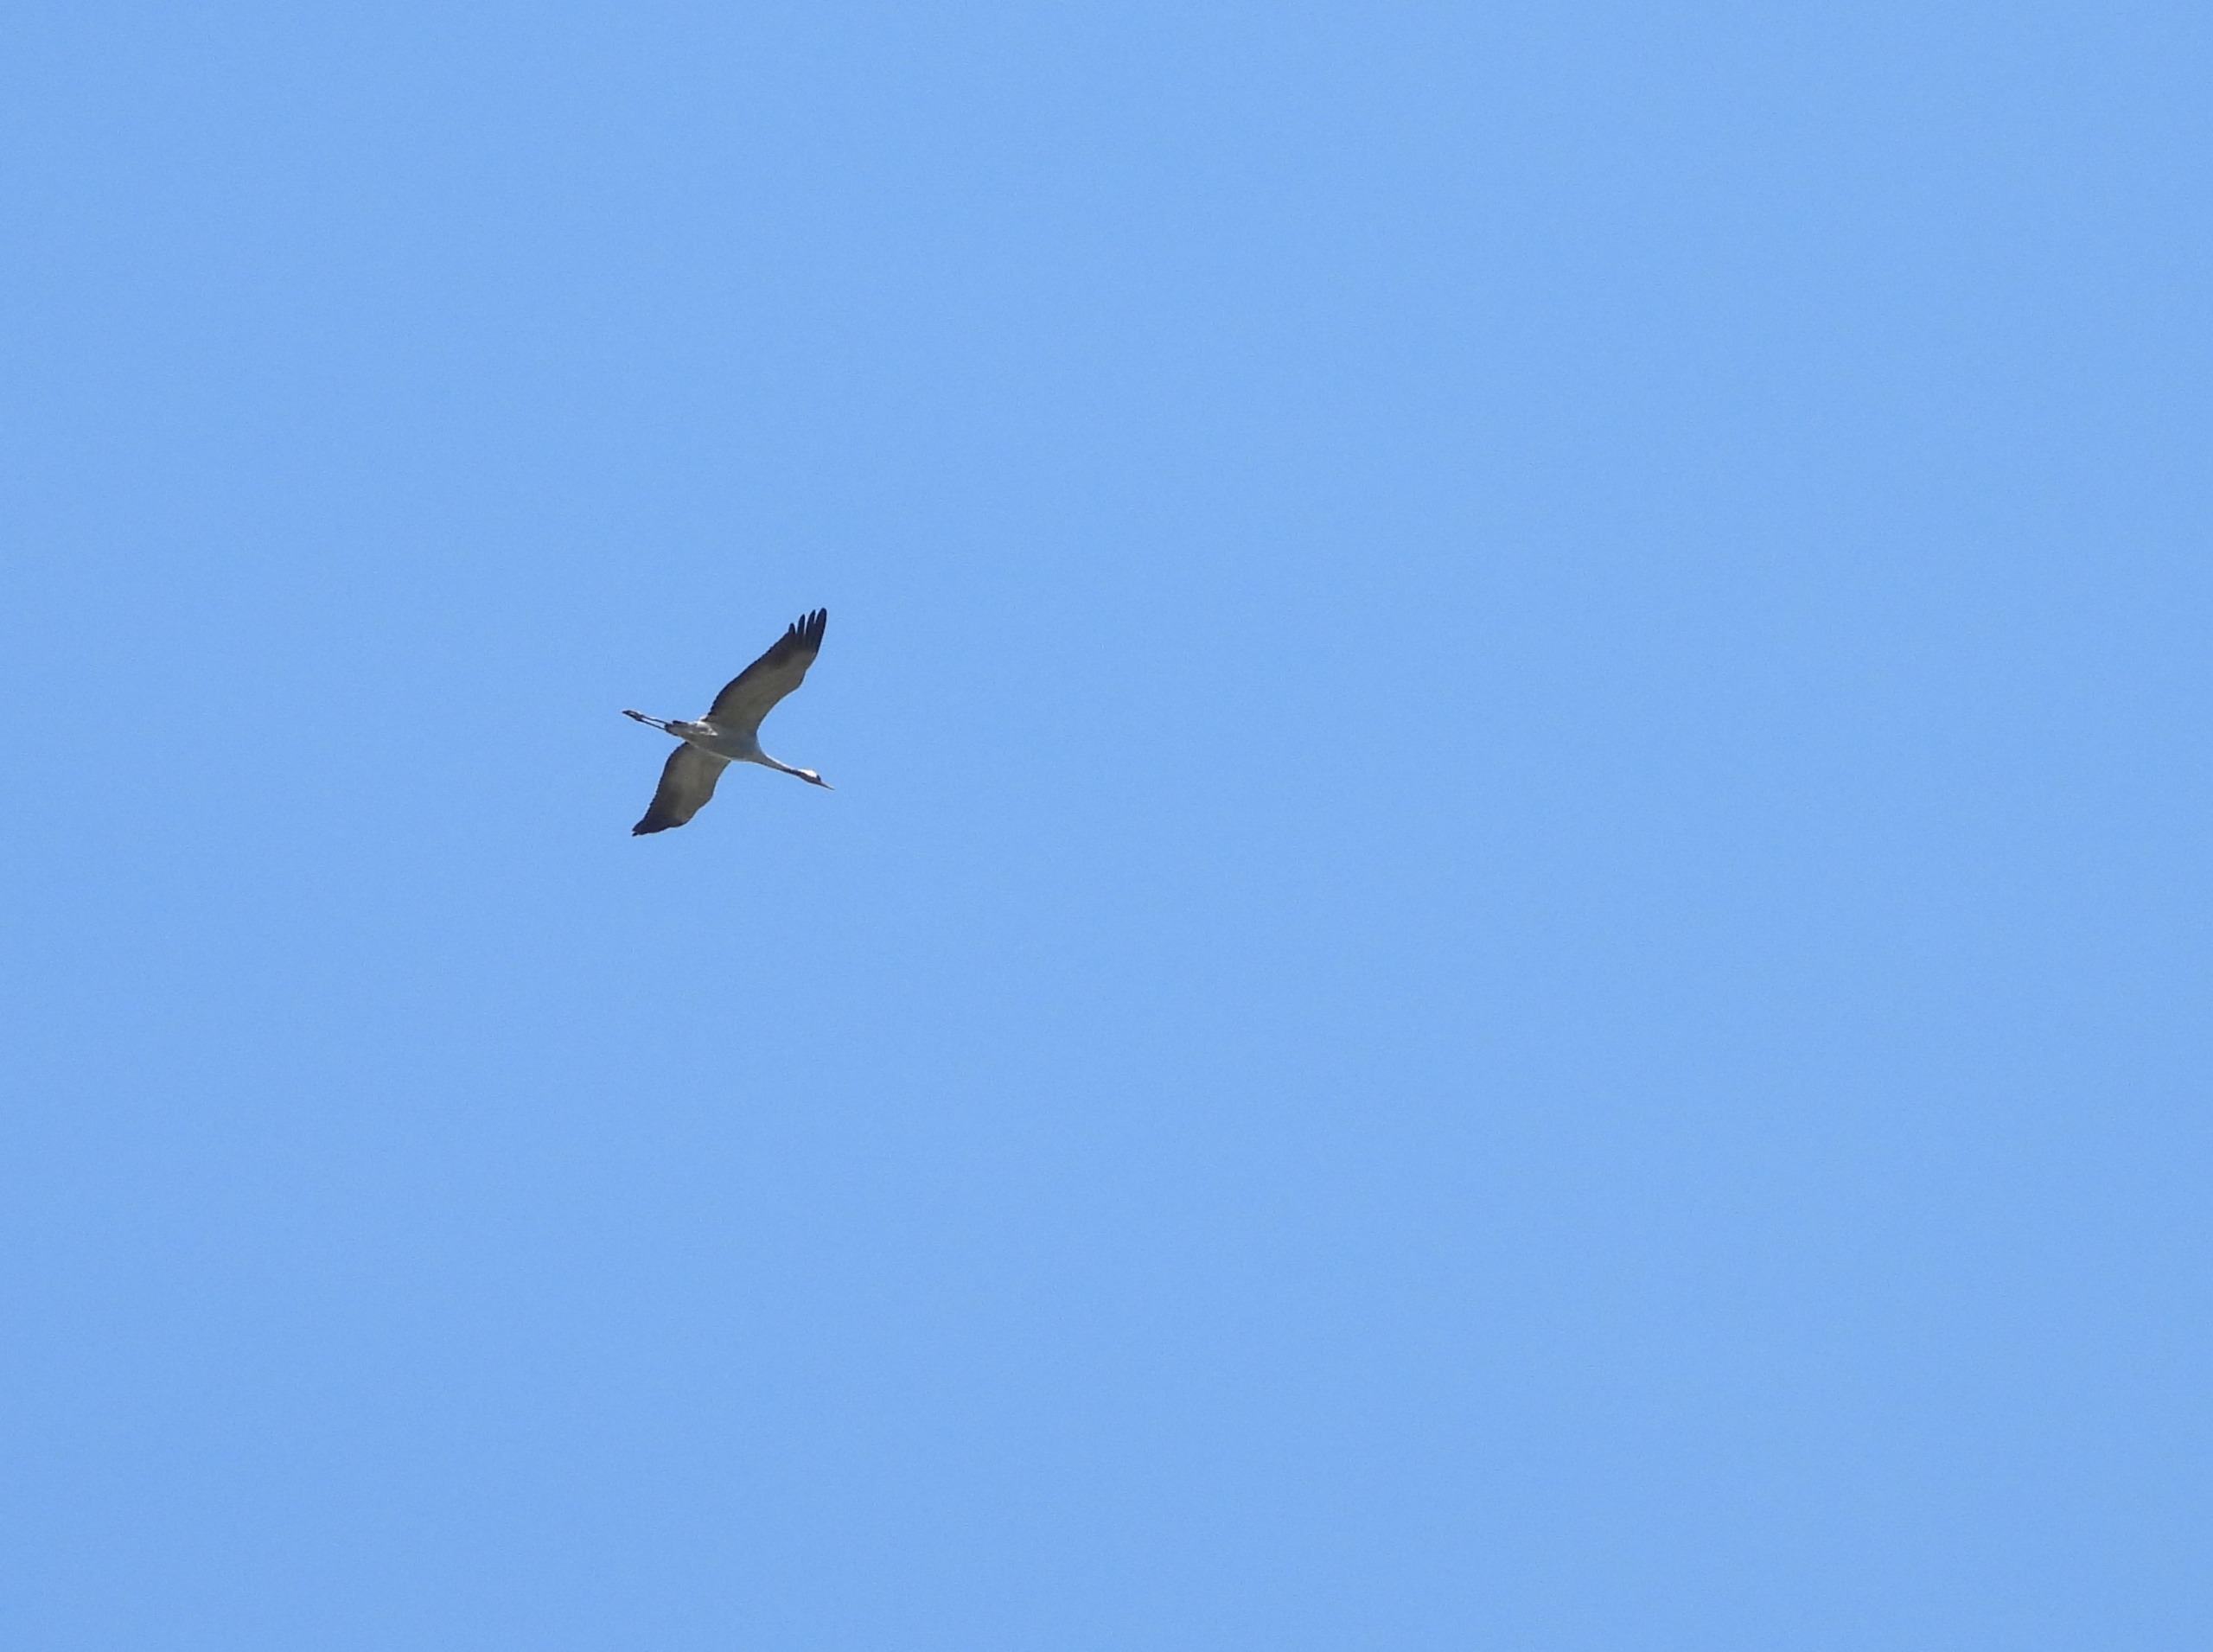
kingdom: Animalia
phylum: Chordata
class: Aves
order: Gruiformes
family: Gruidae
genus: Grus
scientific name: Grus grus
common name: Trane
